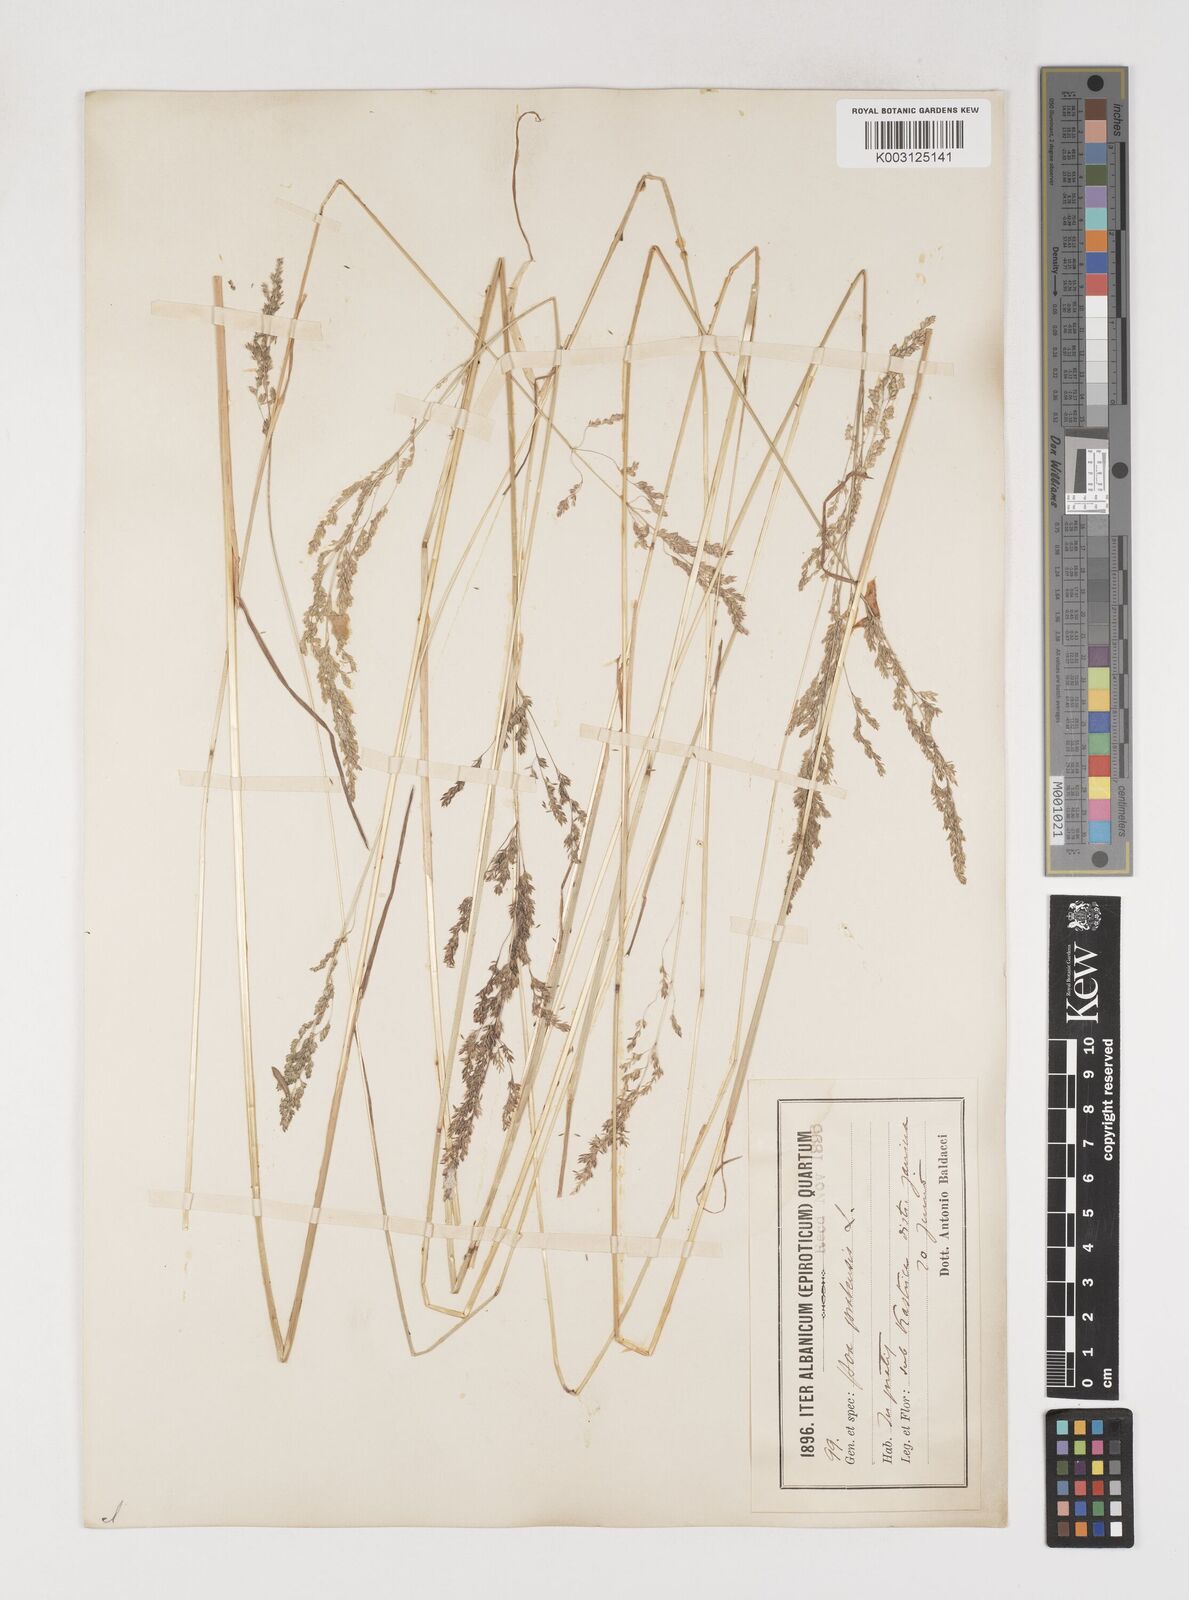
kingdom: Plantae
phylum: Tracheophyta
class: Liliopsida
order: Poales
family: Poaceae
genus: Poa
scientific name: Poa trivialis
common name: Rough bluegrass
